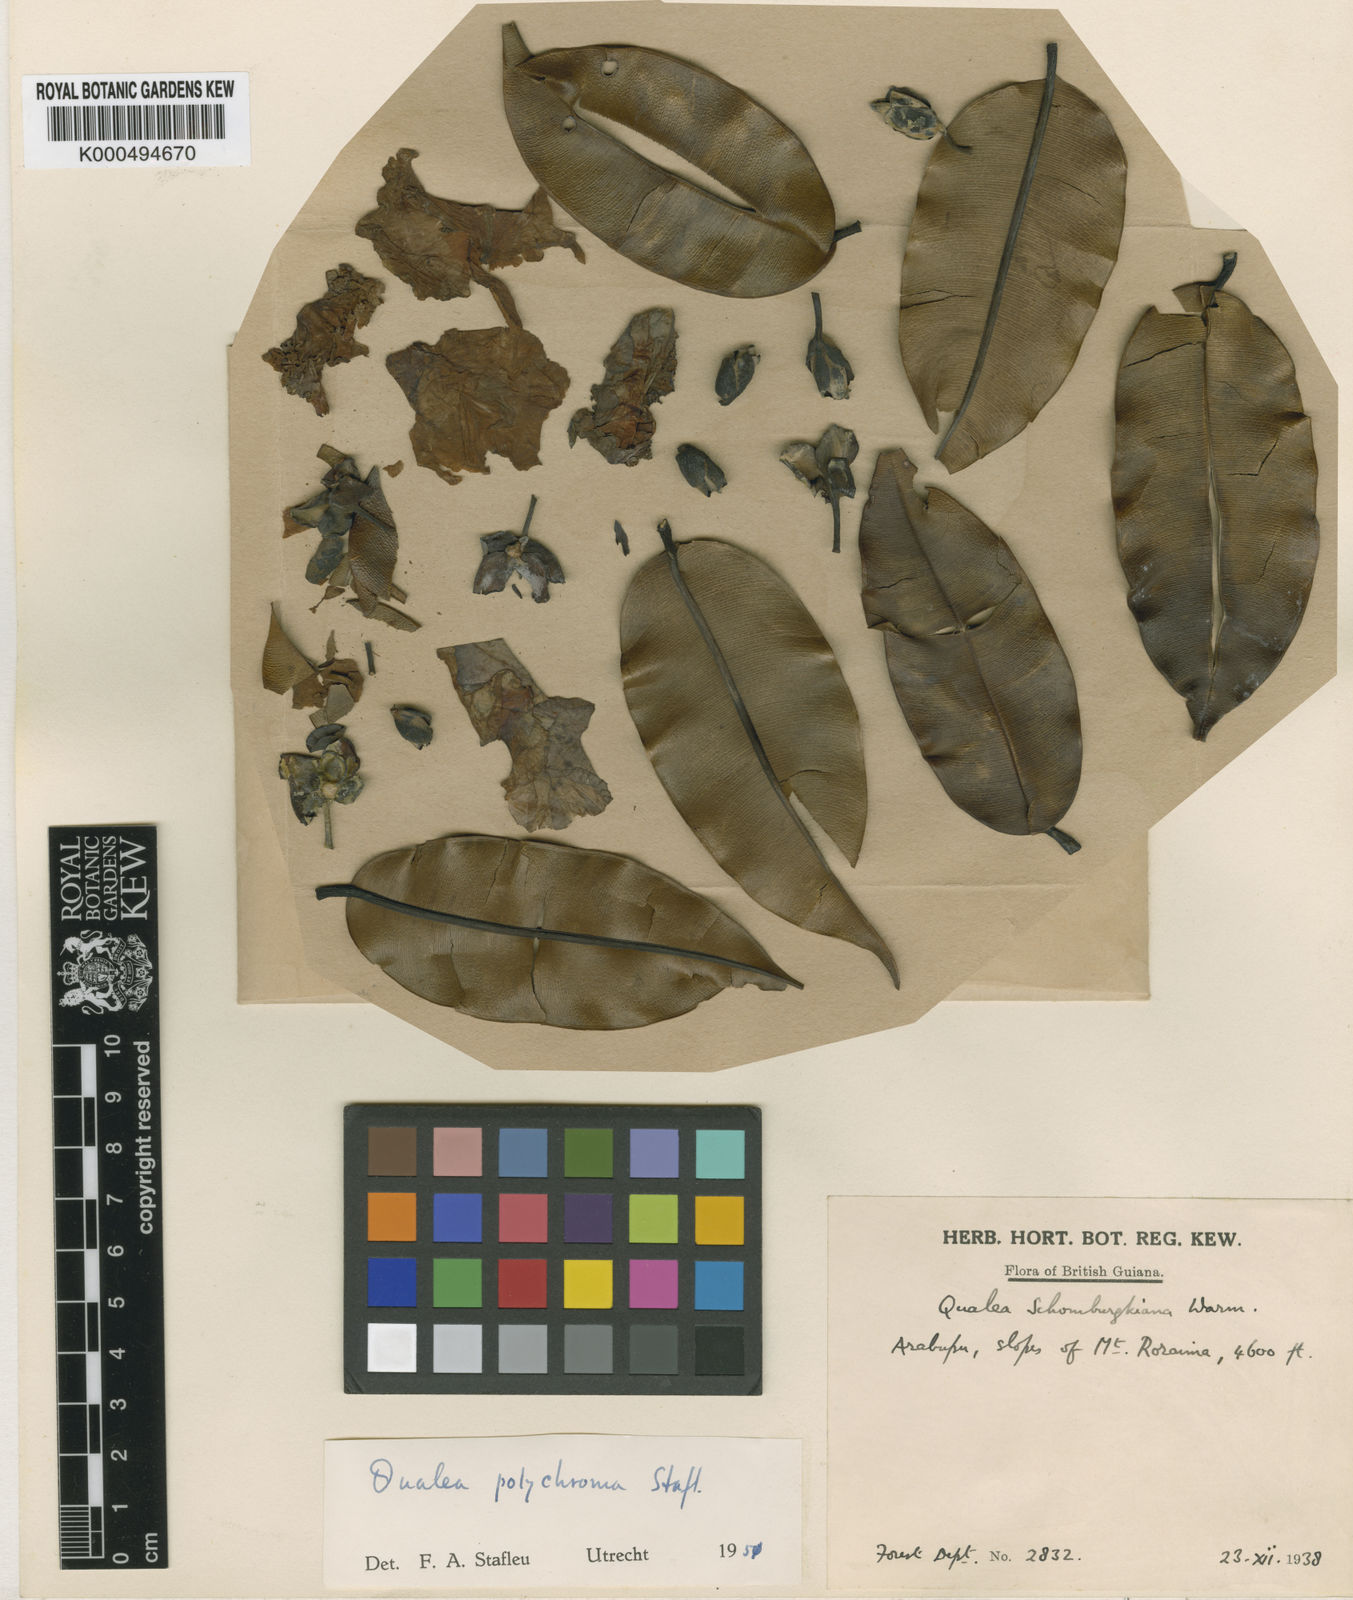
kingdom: Plantae
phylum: Tracheophyta
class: Magnoliopsida
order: Myrtales
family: Vochysiaceae
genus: Qualea
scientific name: Qualea polychroma
